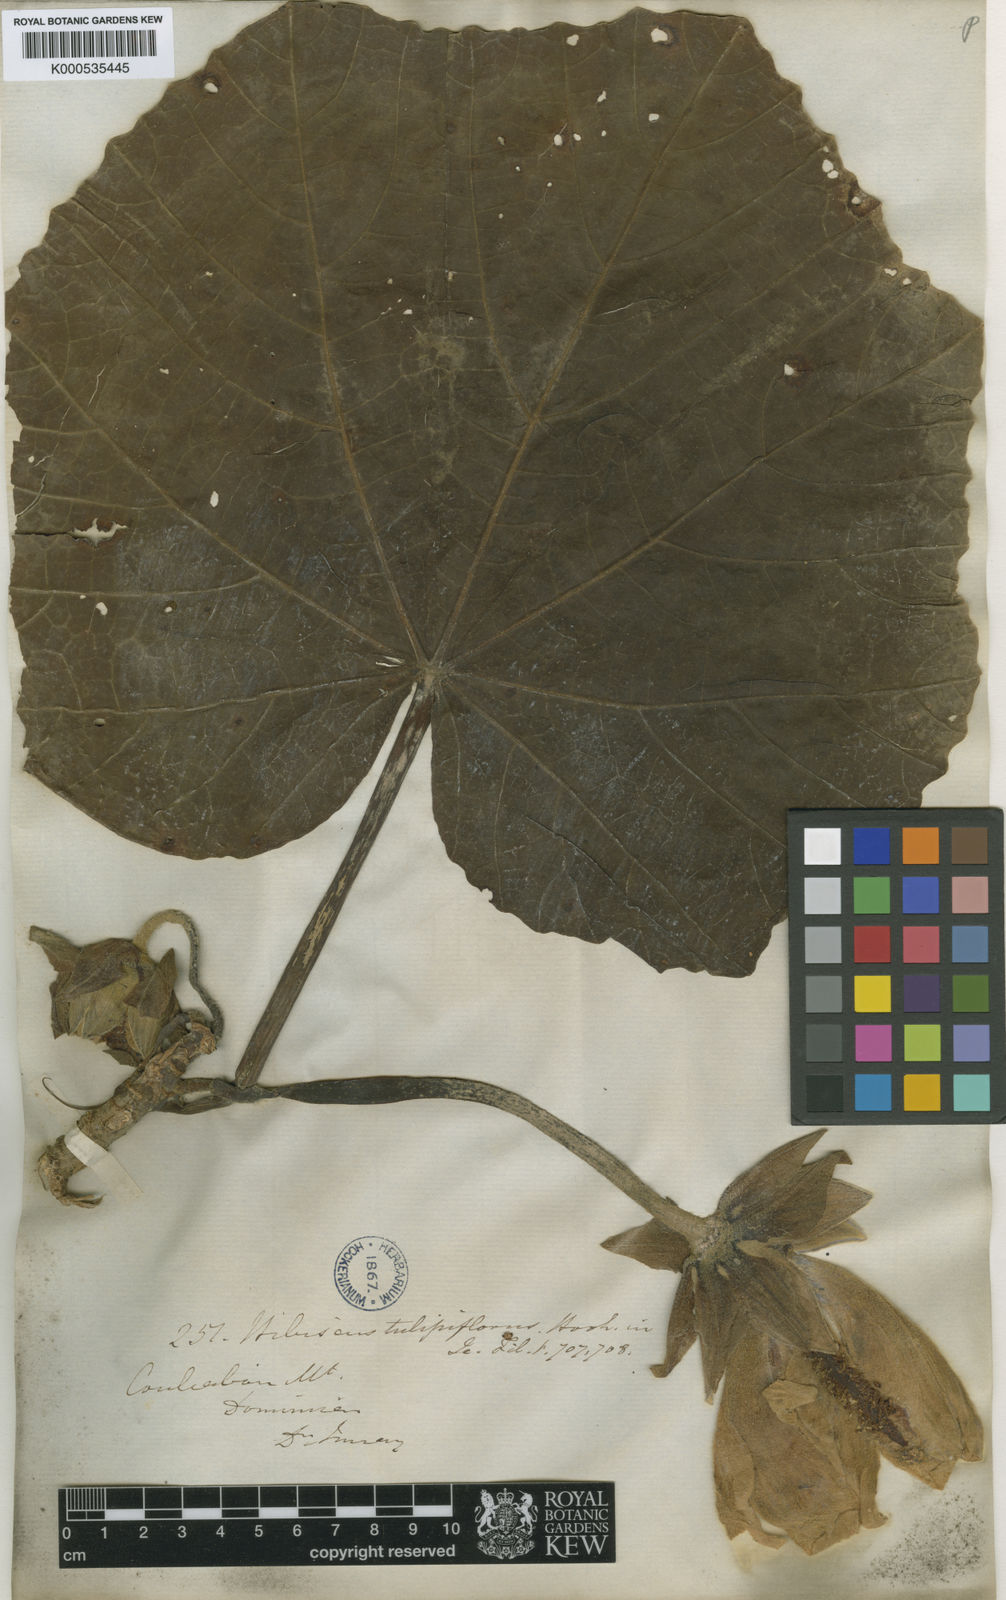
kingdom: Plantae
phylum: Tracheophyta
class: Magnoliopsida
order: Malvales
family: Malvaceae
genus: Wercklea
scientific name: Wercklea tulipiflora
